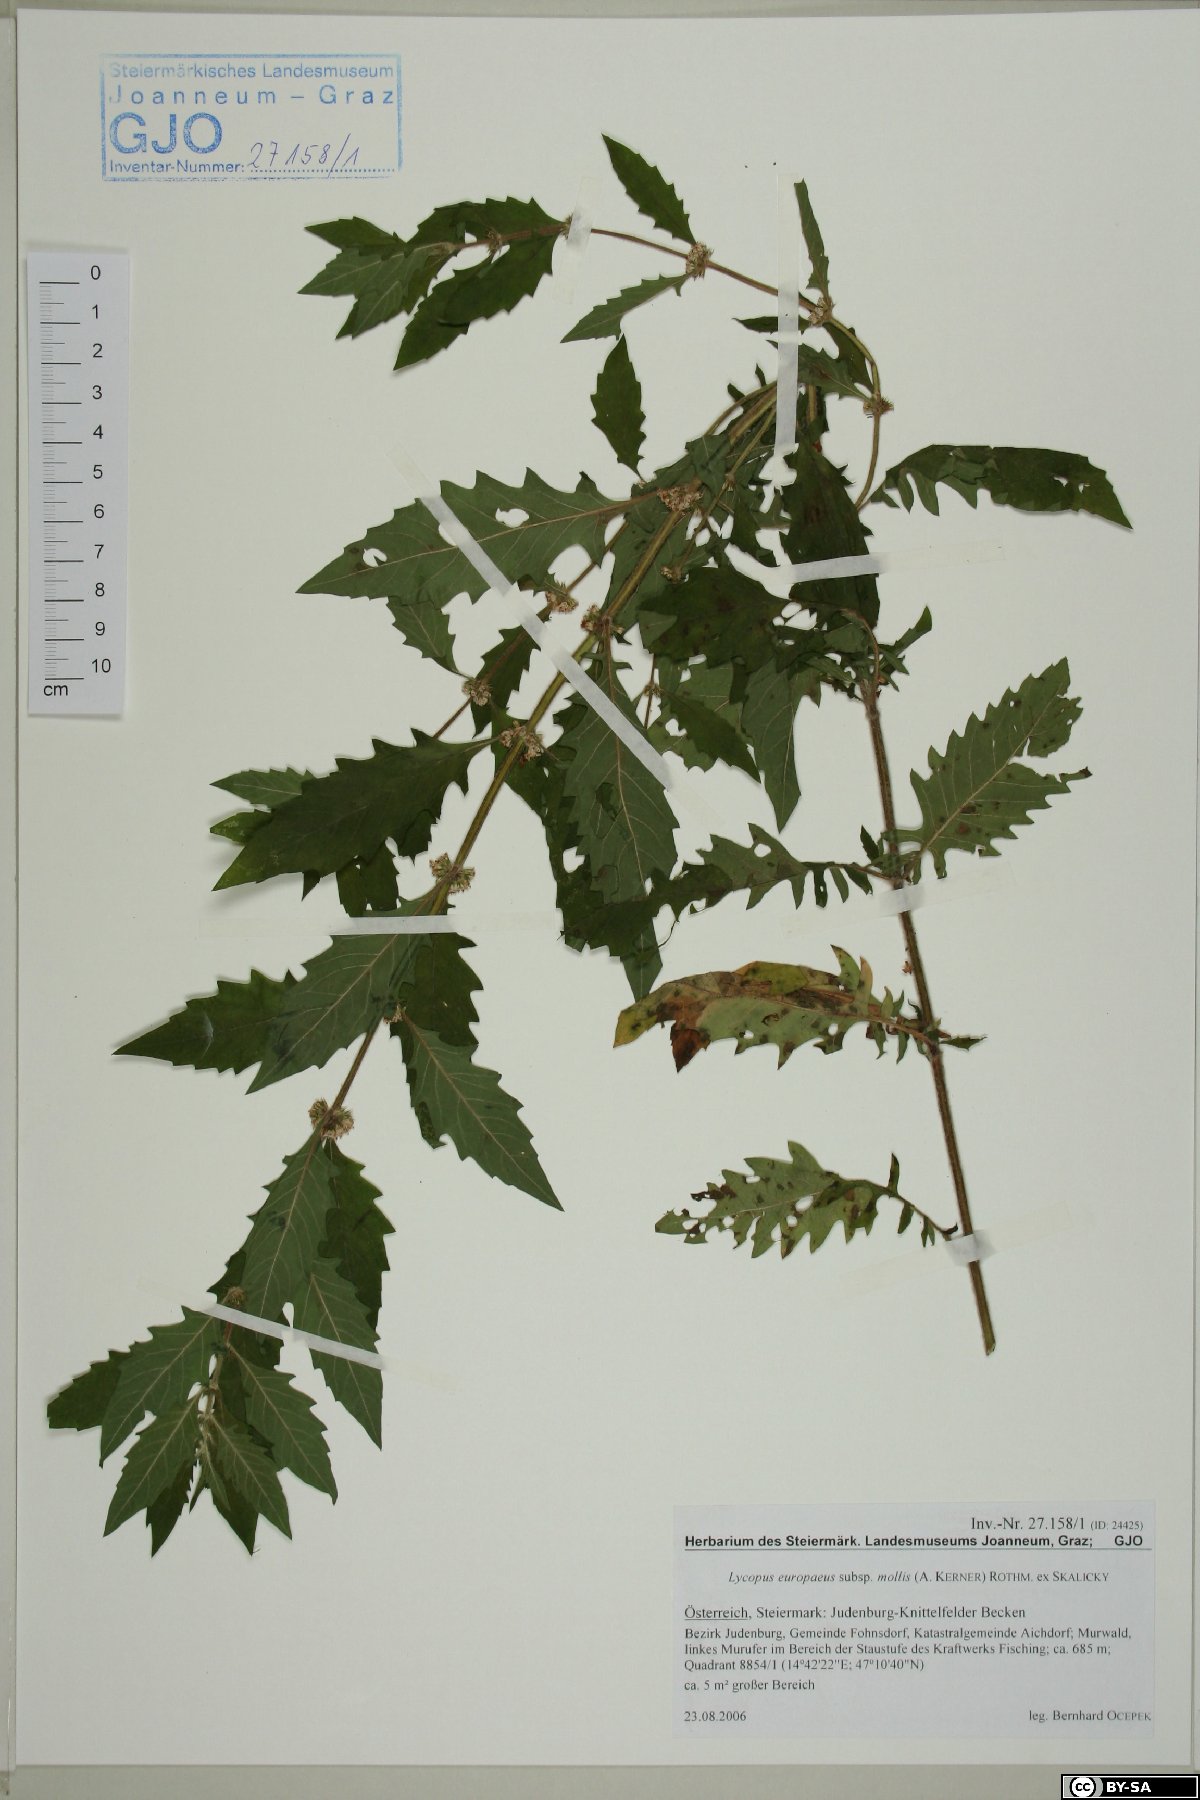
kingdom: Plantae
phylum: Tracheophyta
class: Magnoliopsida
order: Lamiales
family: Lamiaceae
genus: Lycopus
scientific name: Lycopus europaeus
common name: European bugleweed
